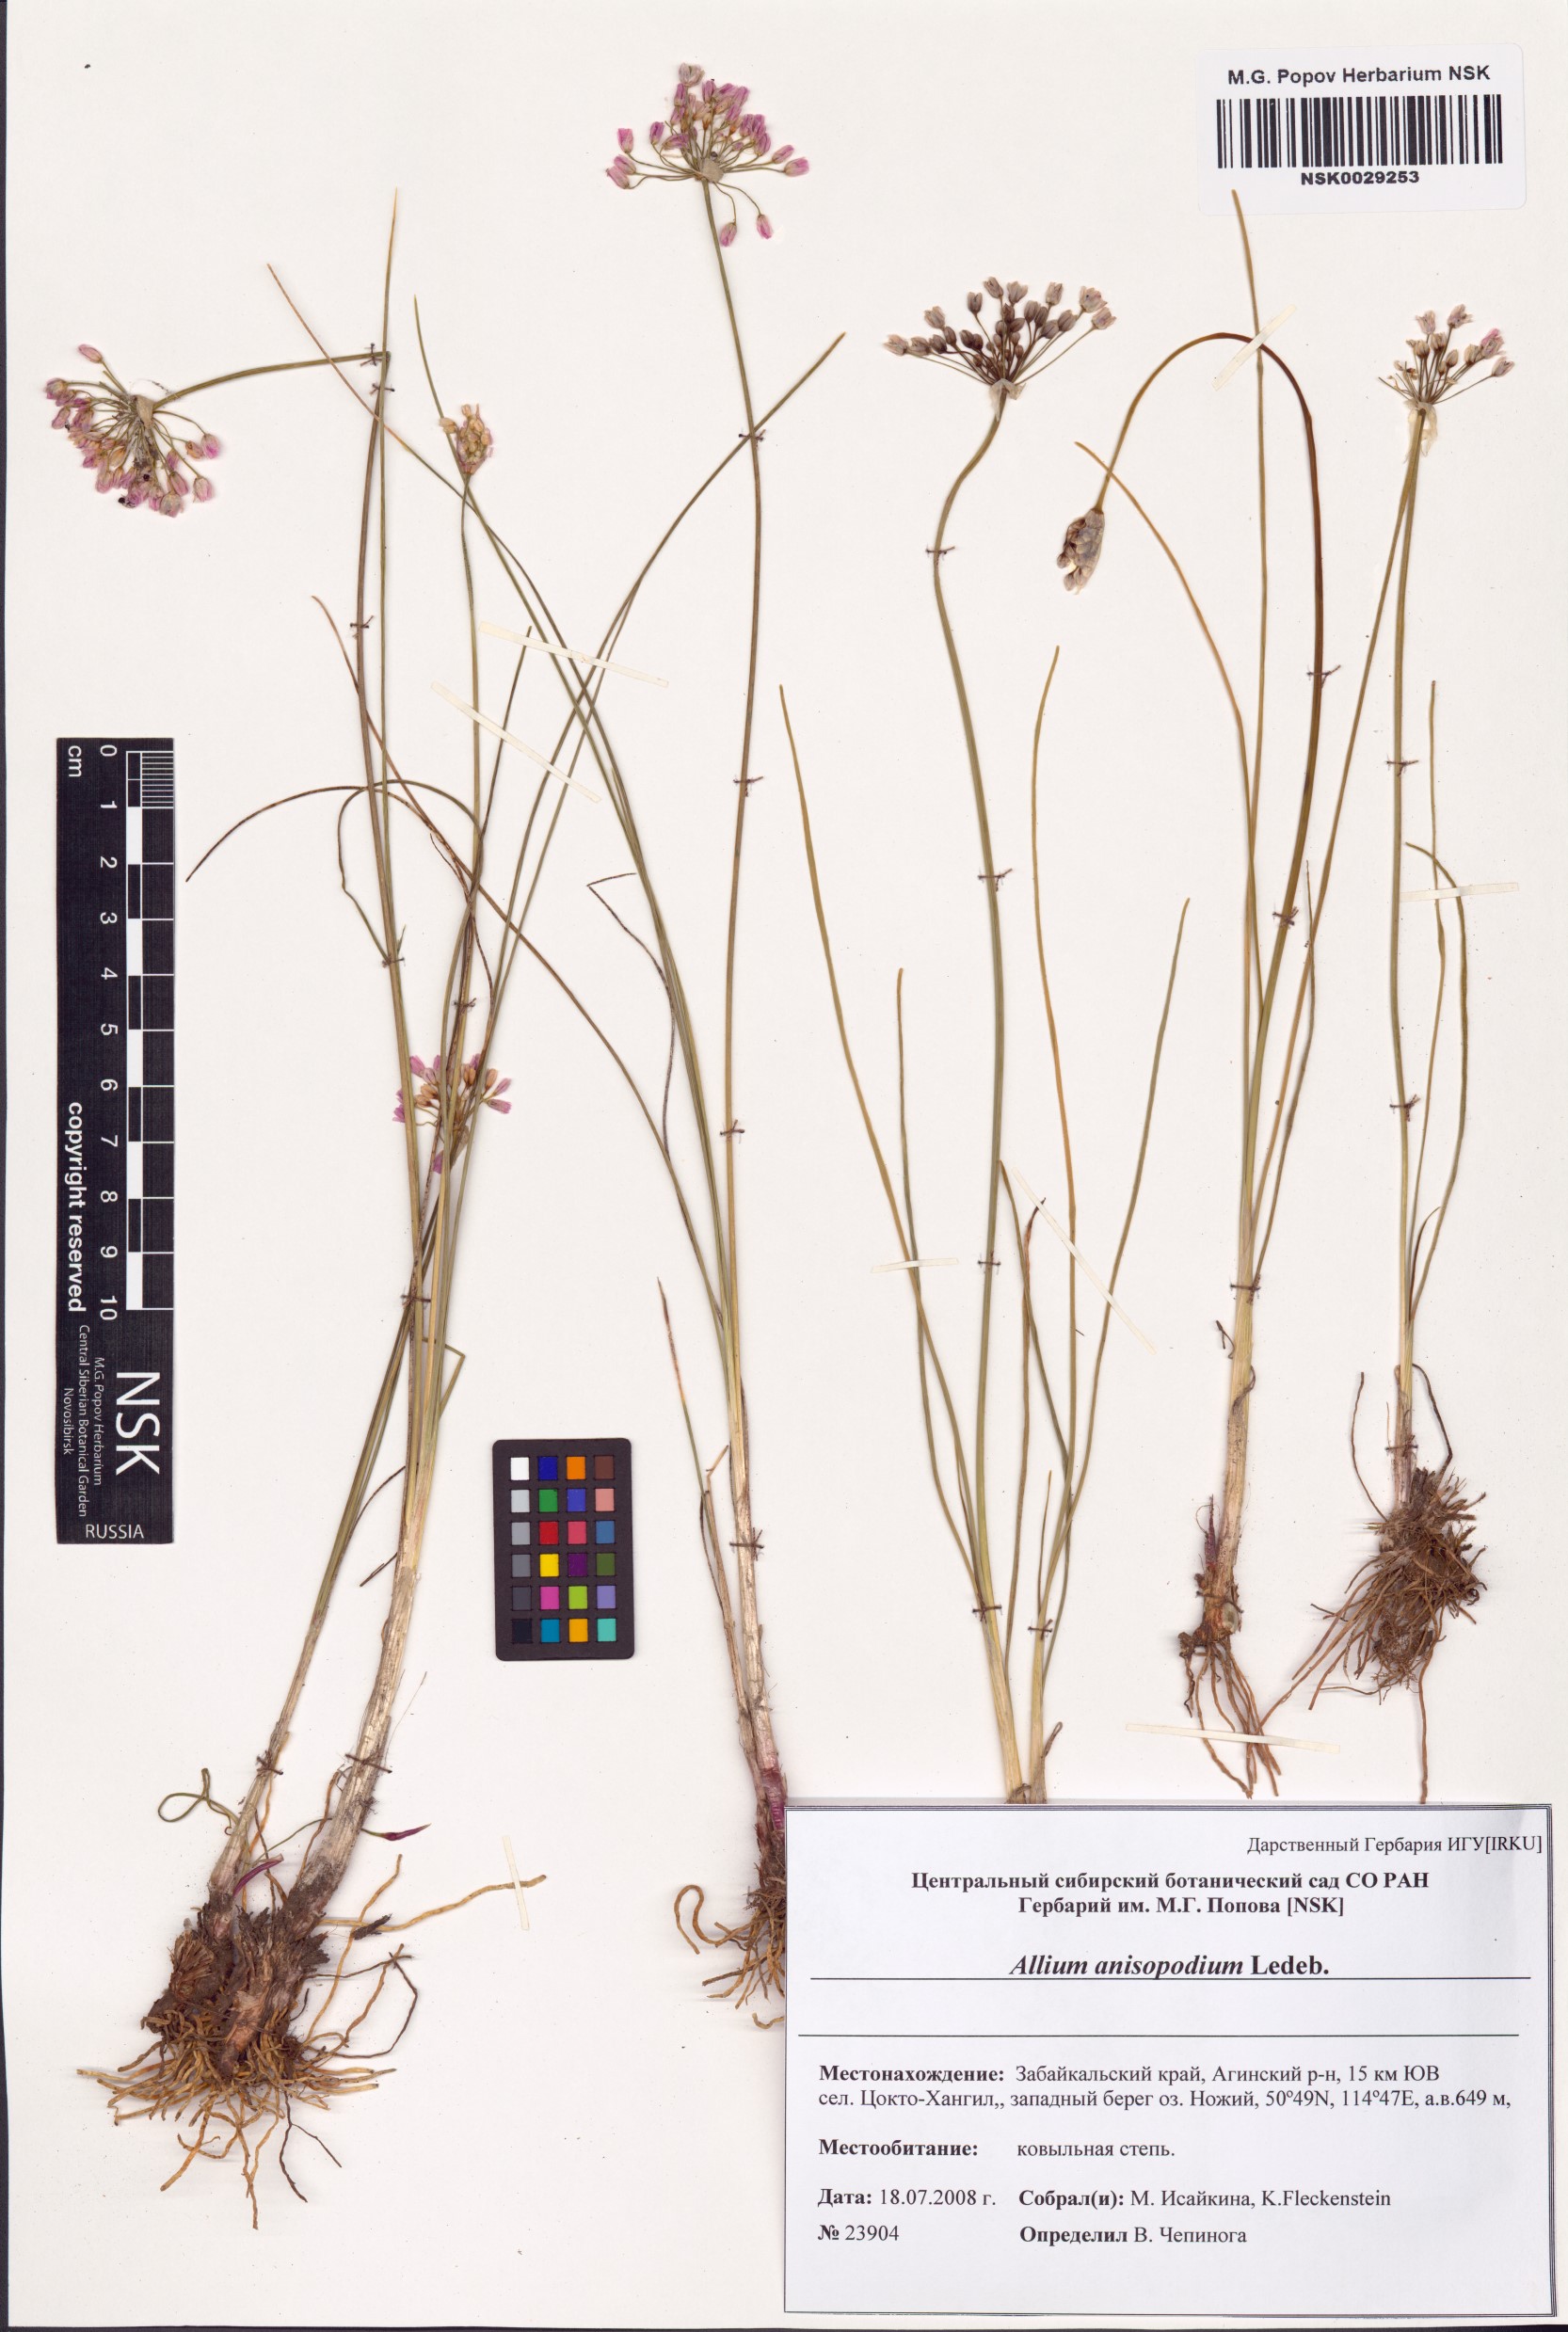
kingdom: Plantae
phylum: Tracheophyta
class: Liliopsida
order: Asparagales
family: Amaryllidaceae
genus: Allium
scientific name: Allium anisopodium
